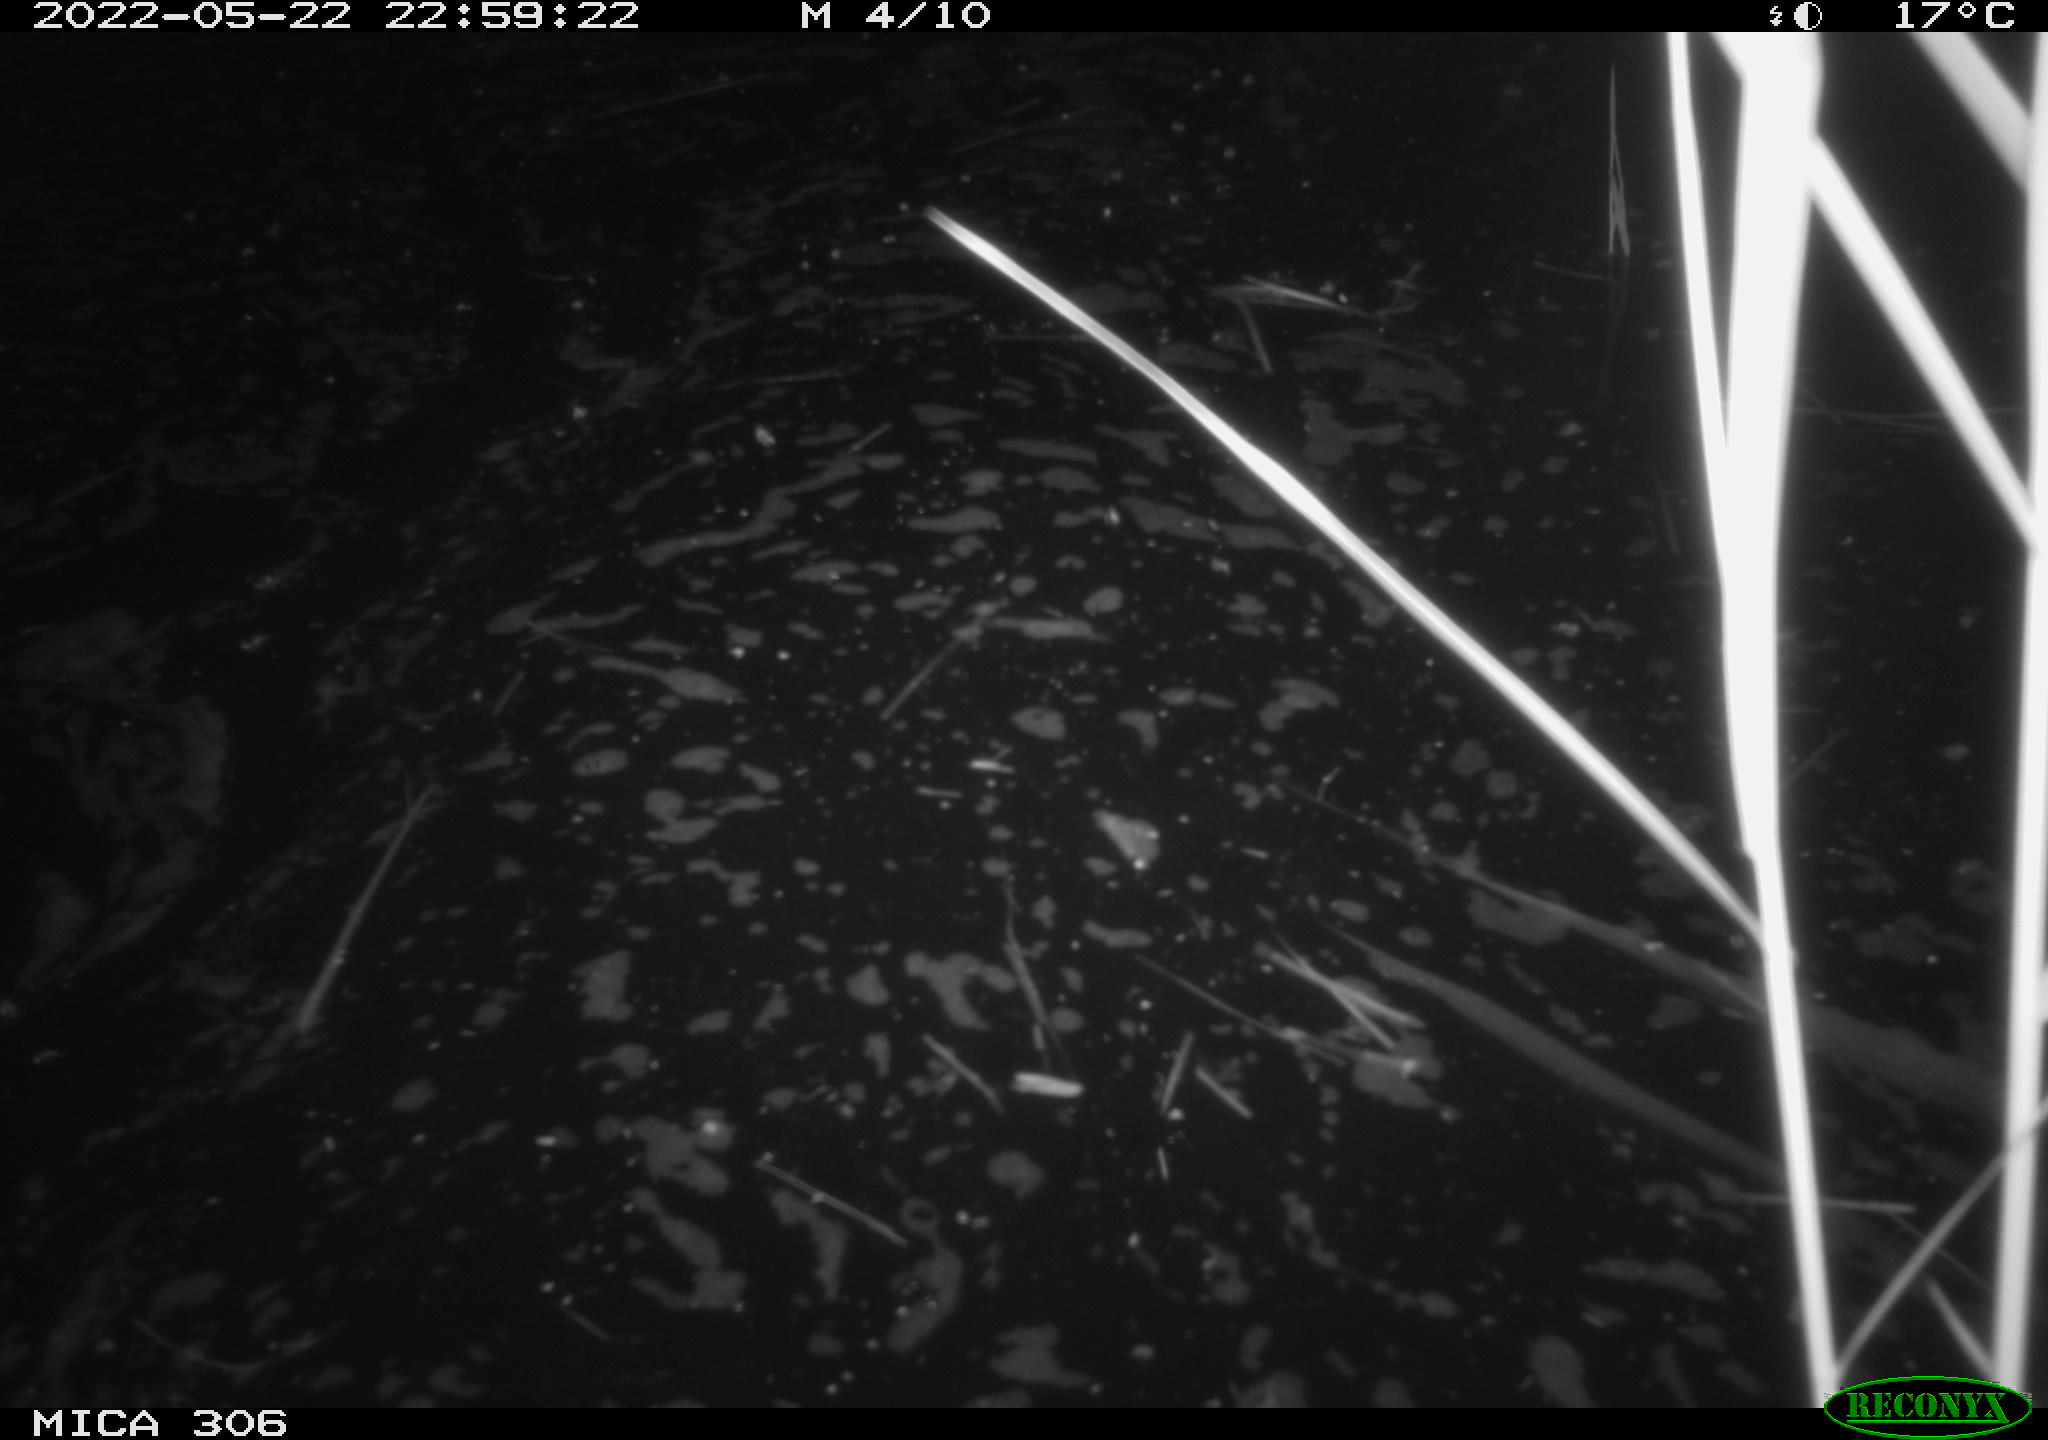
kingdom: Animalia
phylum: Chordata
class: Mammalia
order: Rodentia
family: Muridae
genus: Rattus
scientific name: Rattus norvegicus
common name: Brown rat
